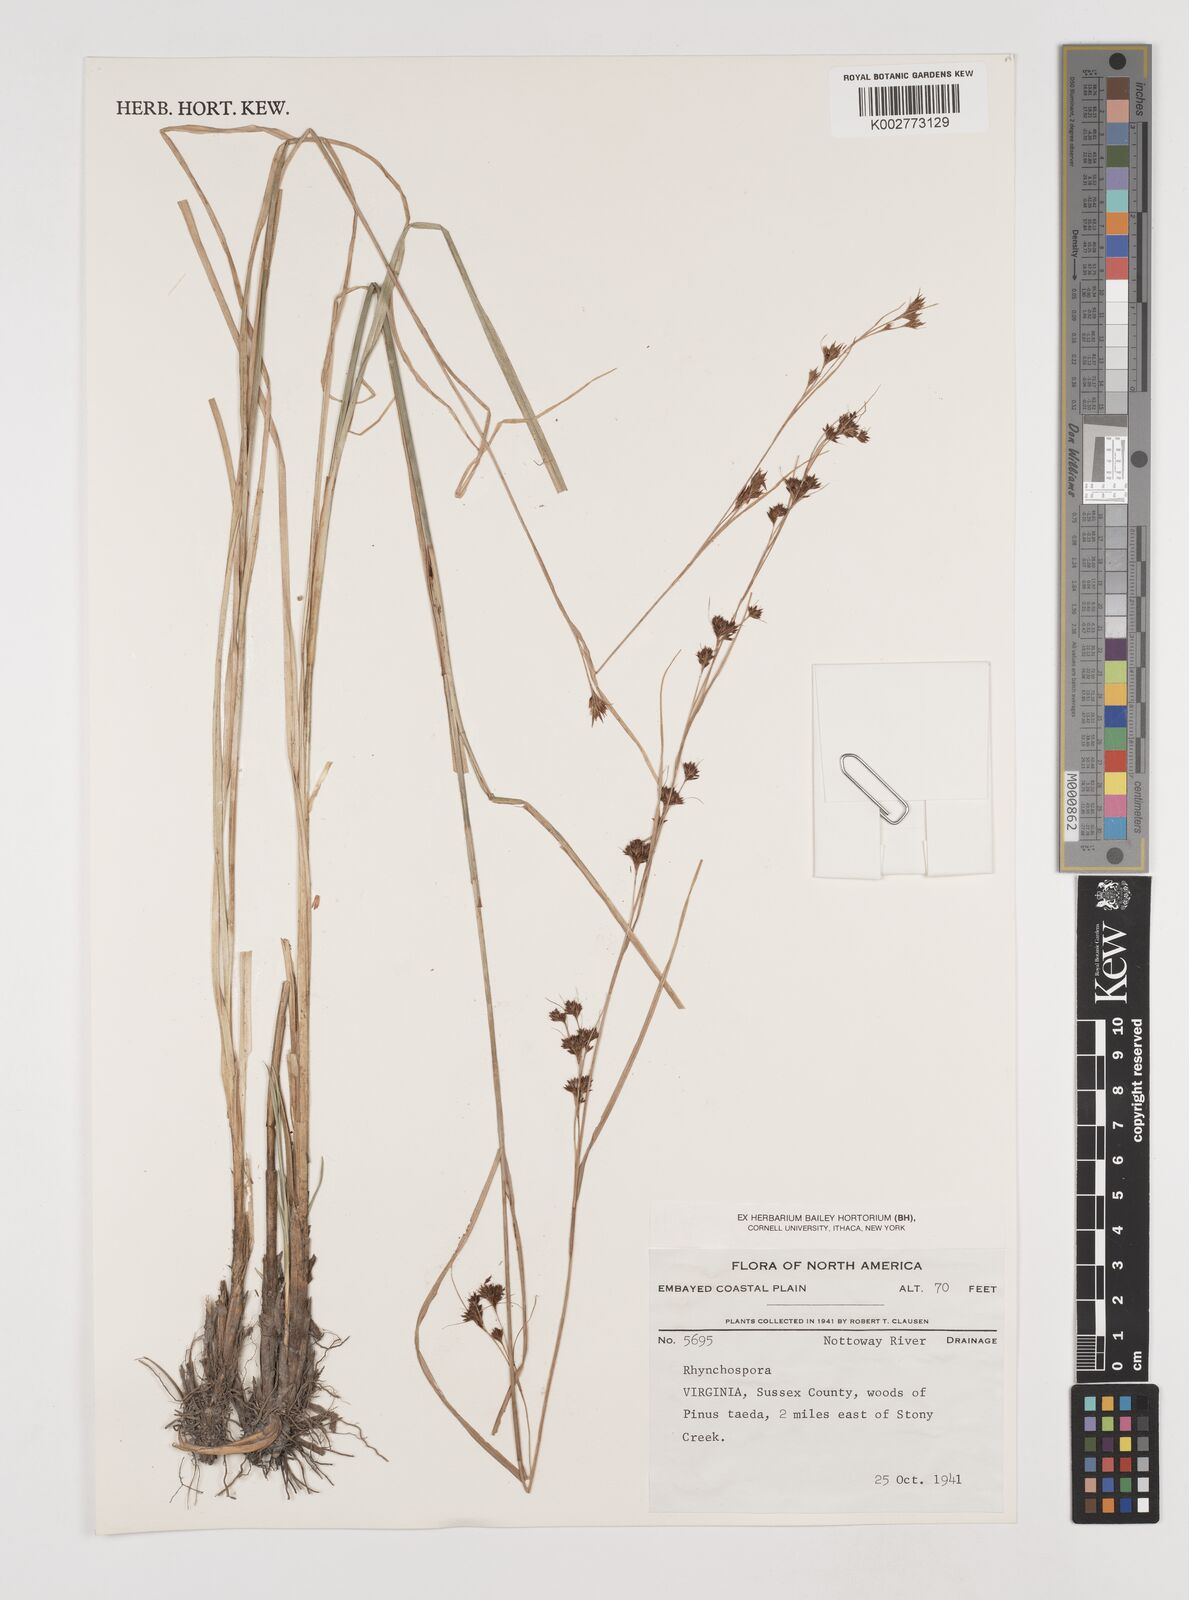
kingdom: Plantae
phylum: Tracheophyta
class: Liliopsida
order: Poales
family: Cyperaceae
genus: Rhynchospora
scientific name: Rhynchospora
